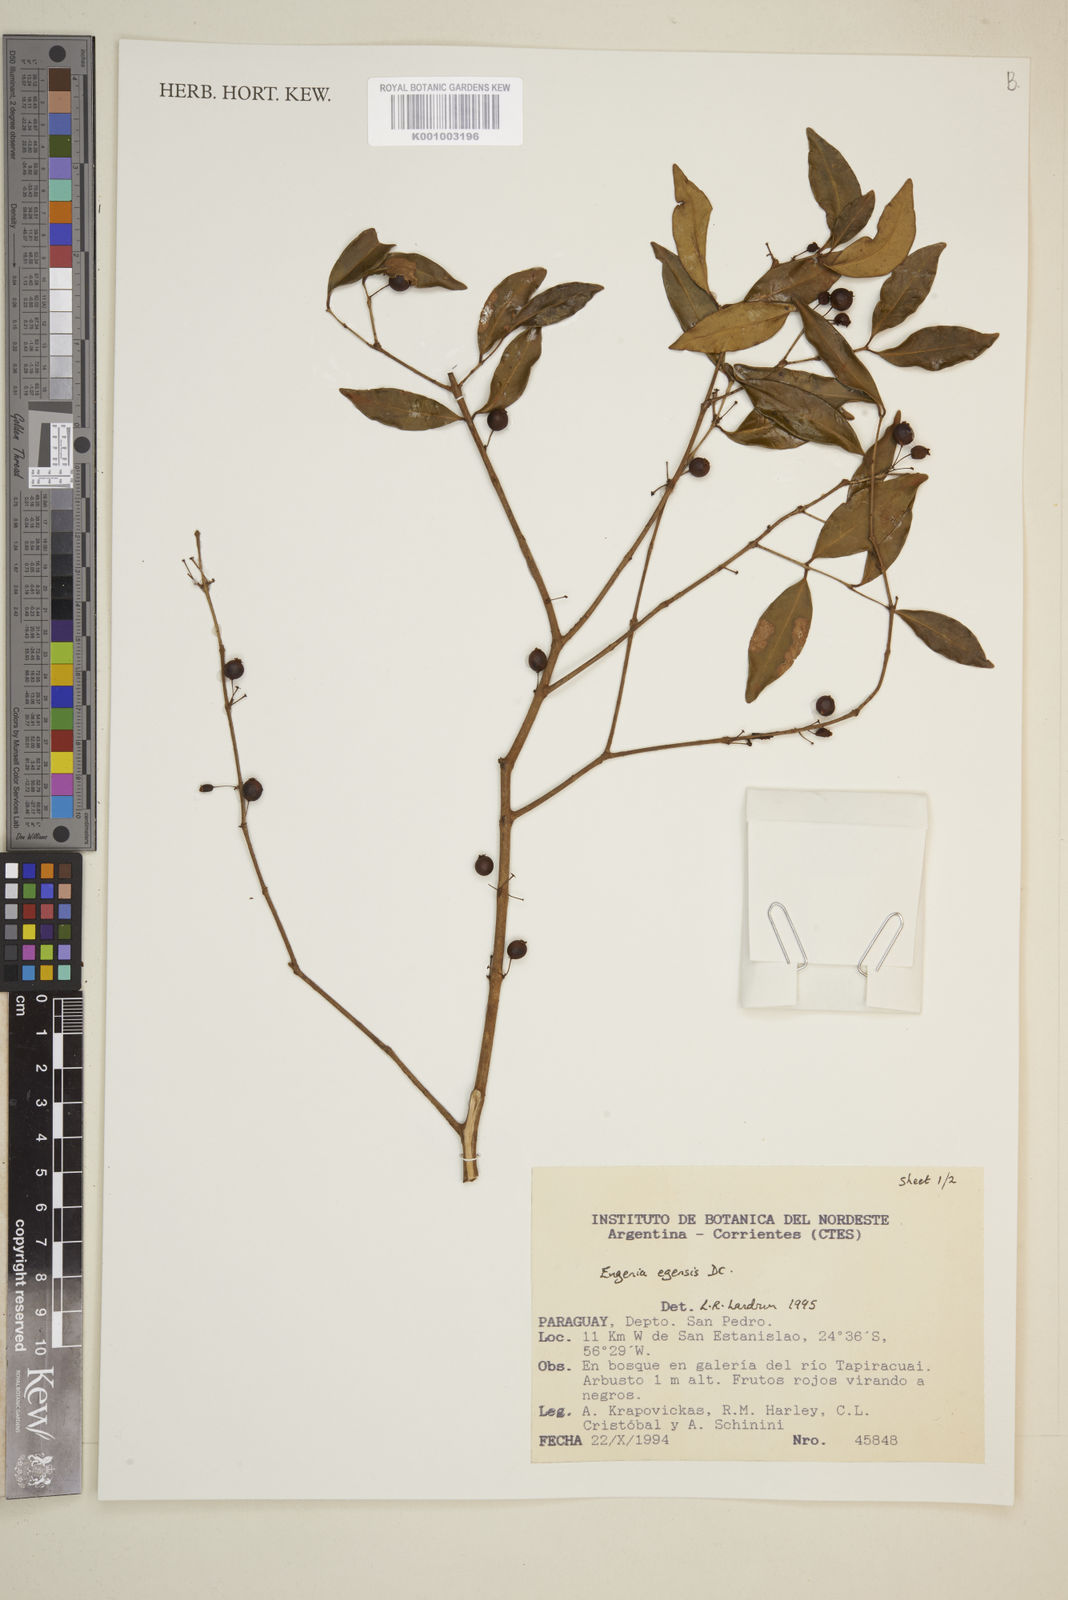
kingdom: Plantae
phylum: Tracheophyta
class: Magnoliopsida
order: Myrtales
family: Myrtaceae
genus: Eugenia
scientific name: Eugenia egensis
